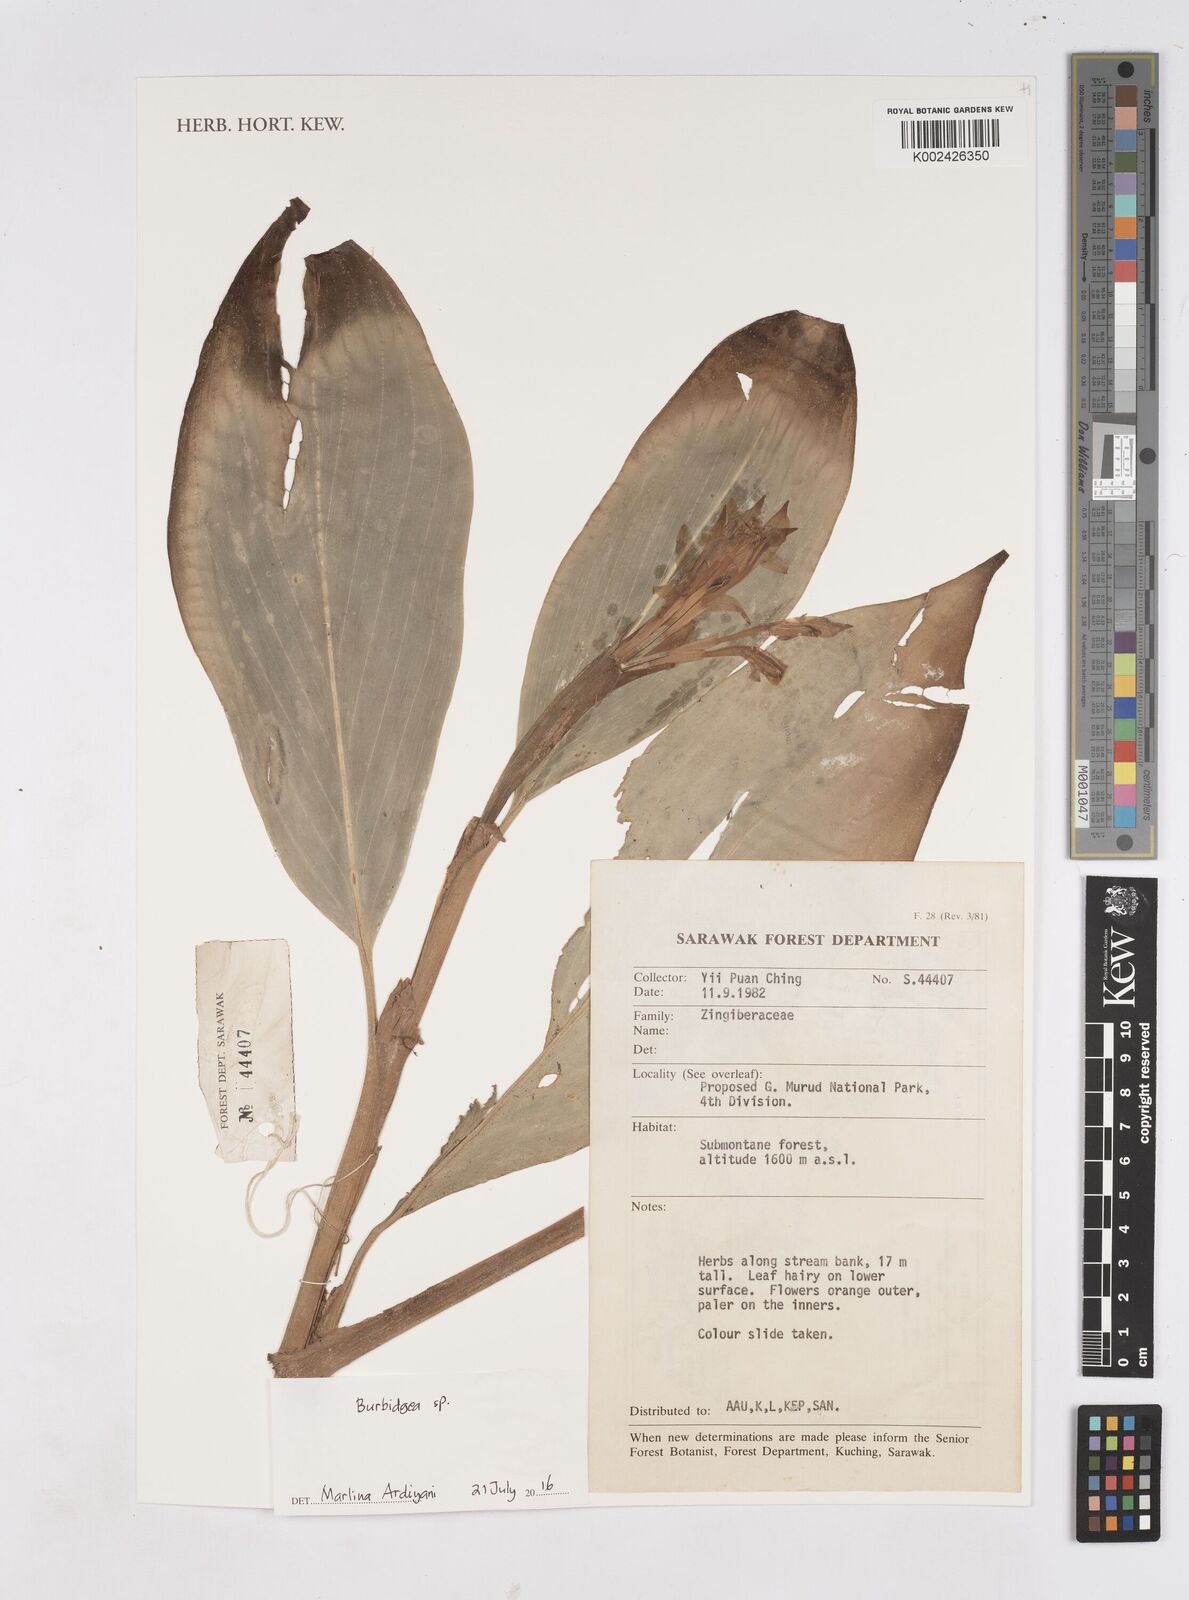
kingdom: Plantae
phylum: Tracheophyta
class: Liliopsida
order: Zingiberales
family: Zingiberaceae
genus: Burbidgea
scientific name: Burbidgea
